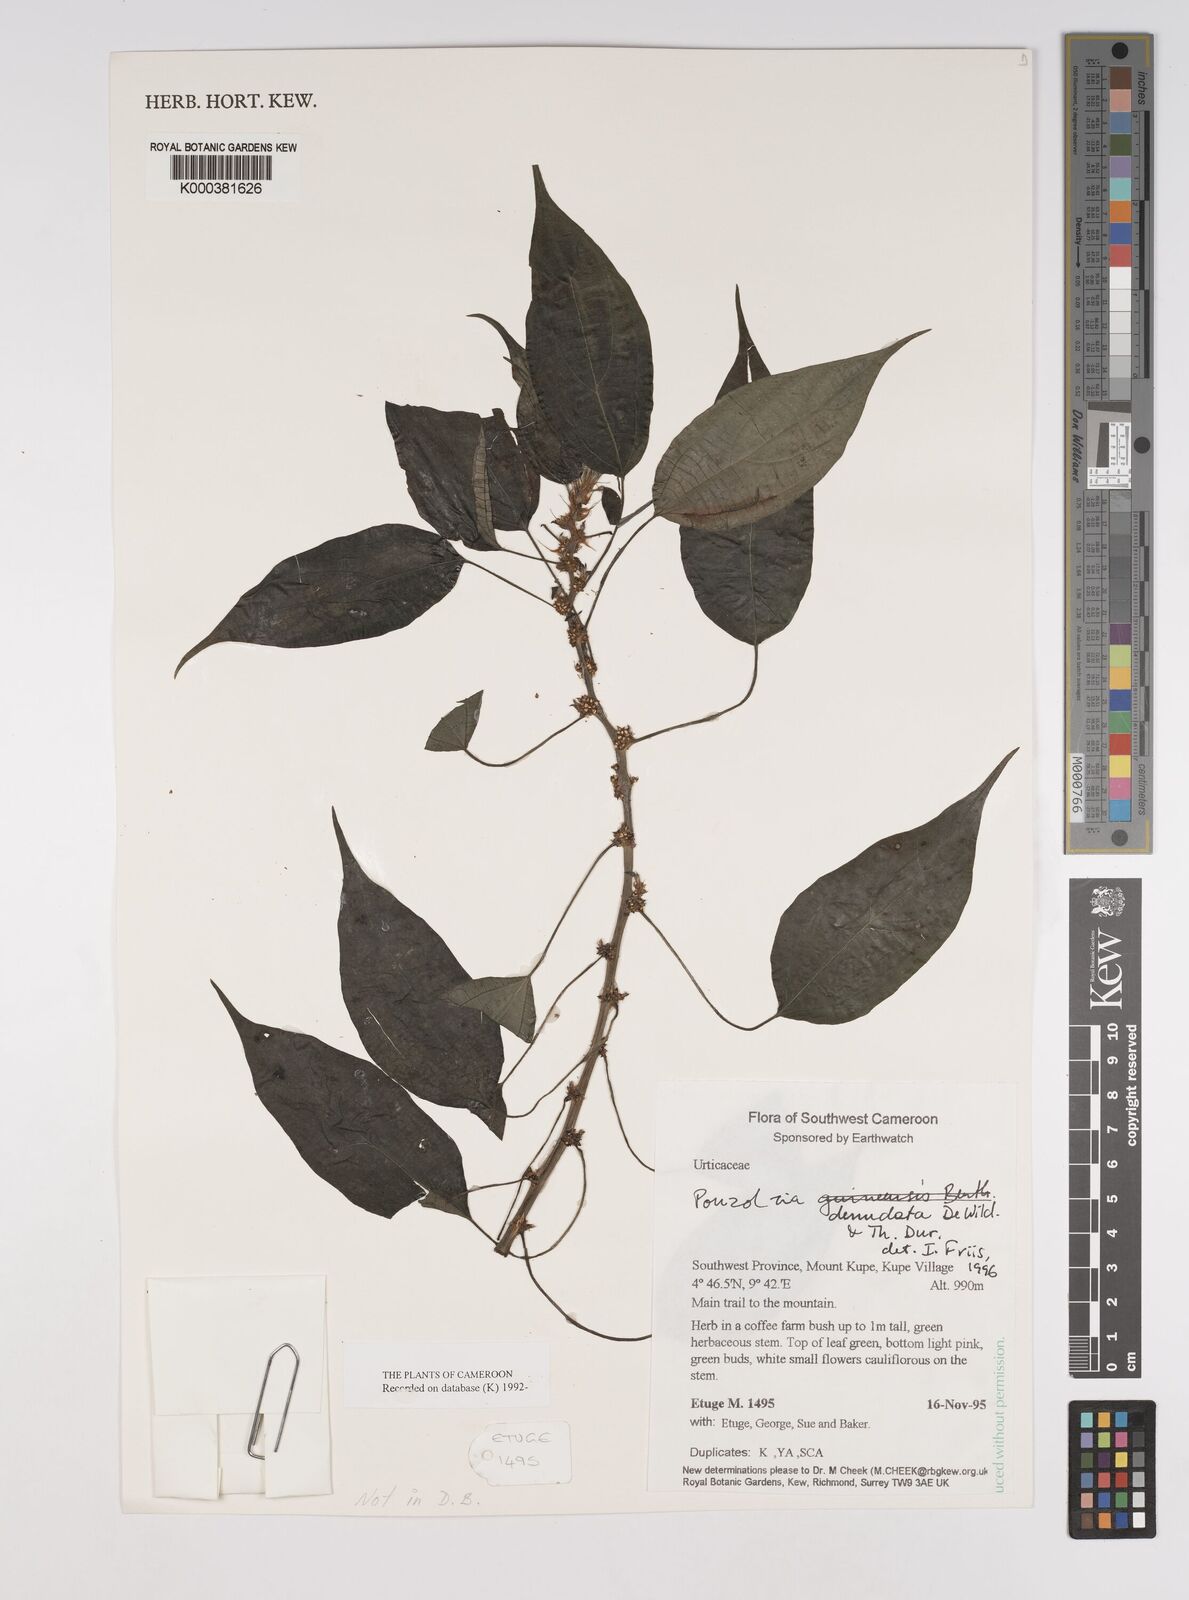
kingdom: Plantae
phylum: Tracheophyta
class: Magnoliopsida
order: Rosales
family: Urticaceae
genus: Pouzolzia
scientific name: Pouzolzia denudata
